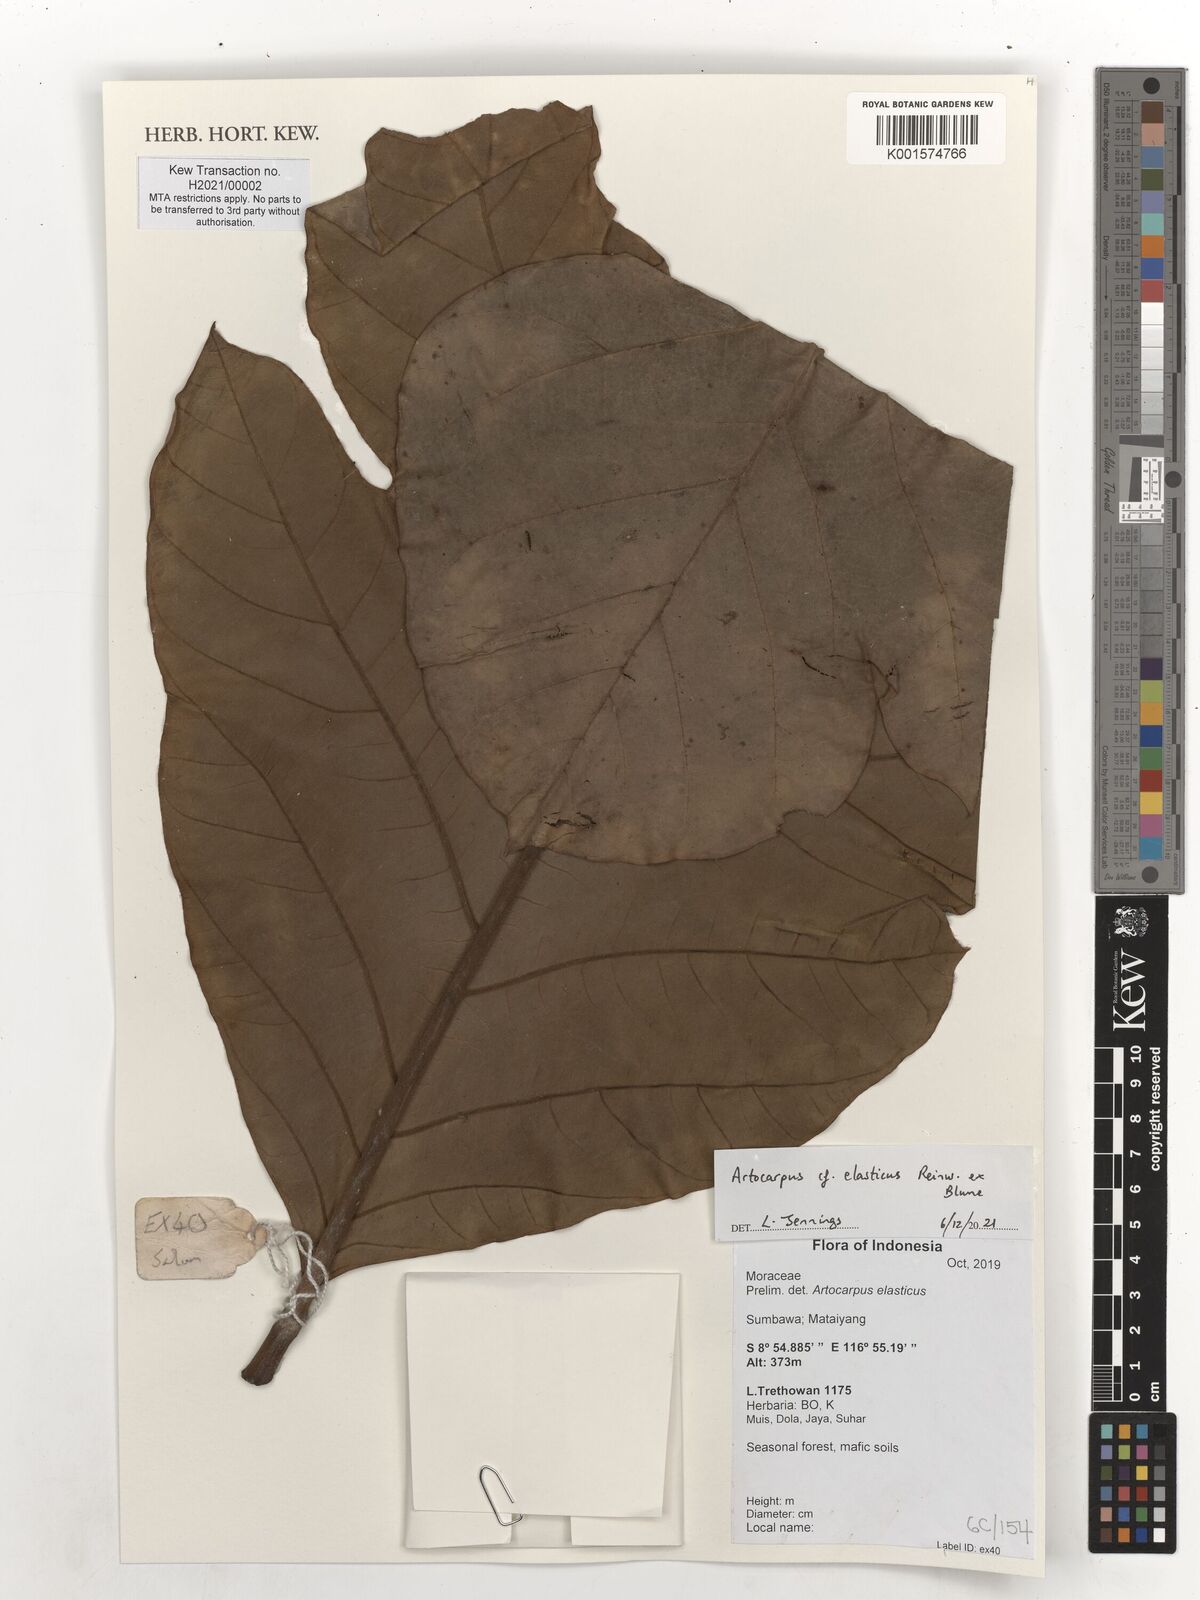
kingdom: Plantae
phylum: Tracheophyta
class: Magnoliopsida
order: Rosales
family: Moraceae
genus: Artocarpus
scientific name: Artocarpus elasticus
